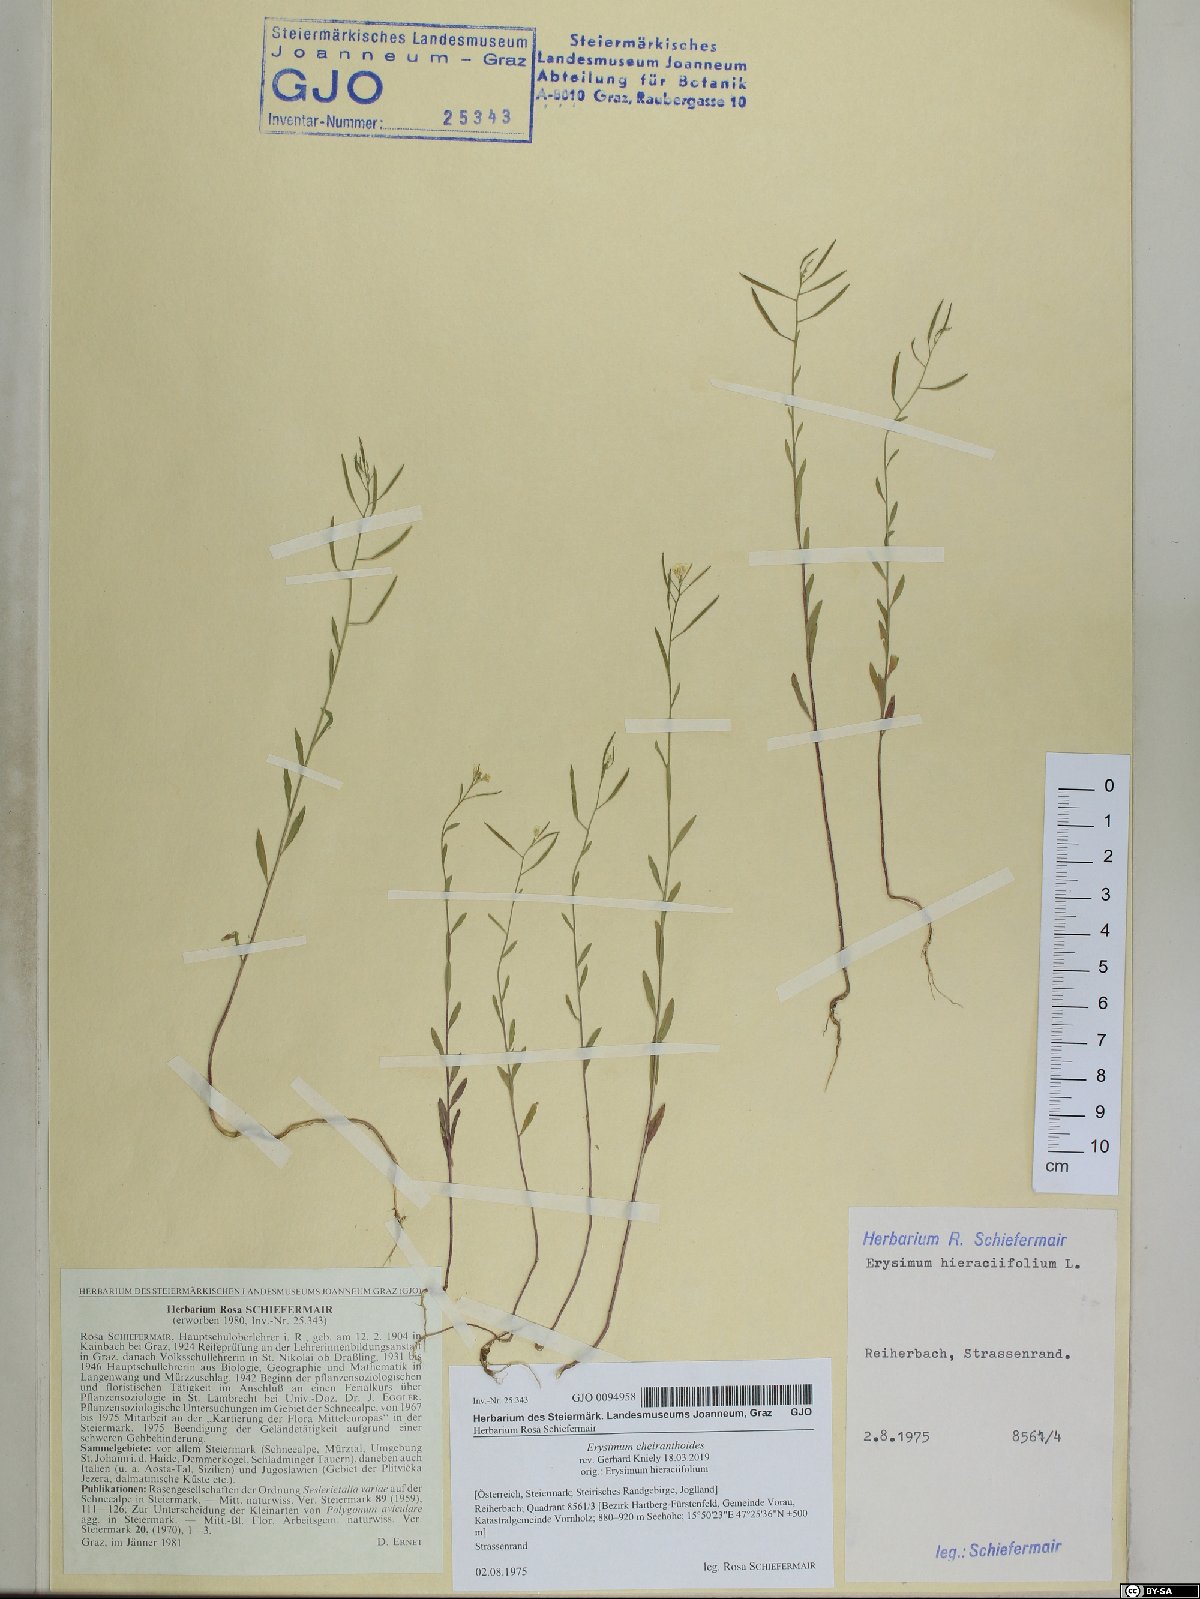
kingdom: Plantae
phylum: Tracheophyta
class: Magnoliopsida
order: Brassicales
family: Brassicaceae
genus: Erysimum
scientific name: Erysimum cheiranthoides
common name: Treacle mustard
